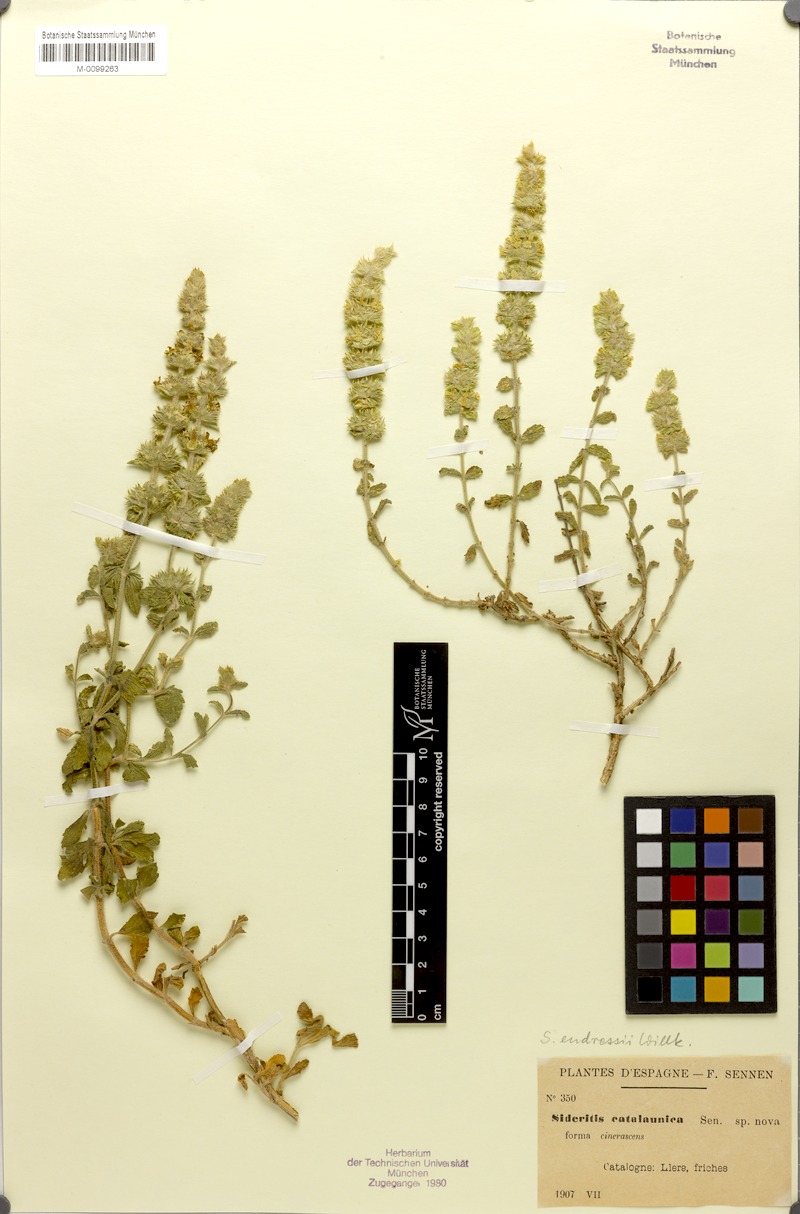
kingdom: Plantae
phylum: Tracheophyta
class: Magnoliopsida
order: Lamiales
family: Lamiaceae
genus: Sideritis
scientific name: Sideritis endressii
